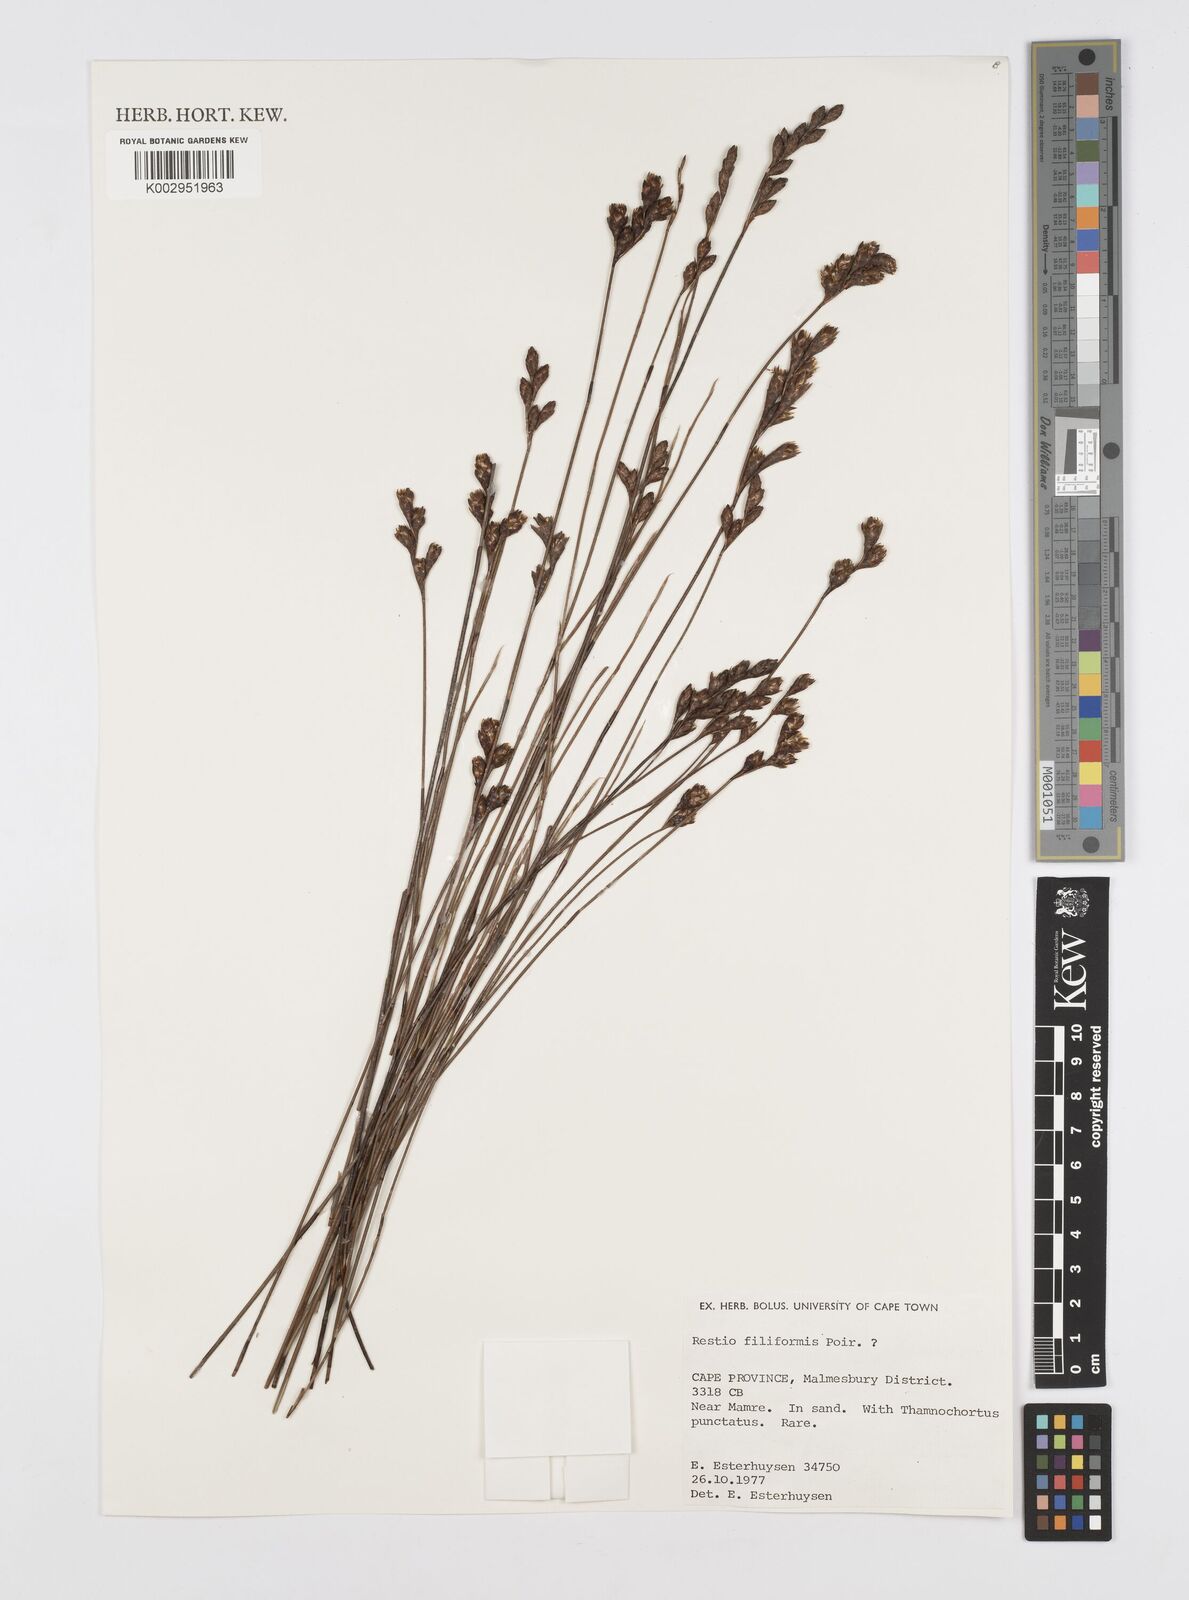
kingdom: Plantae
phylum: Tracheophyta
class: Liliopsida
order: Poales
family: Restionaceae
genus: Restio
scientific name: Restio filiformis
